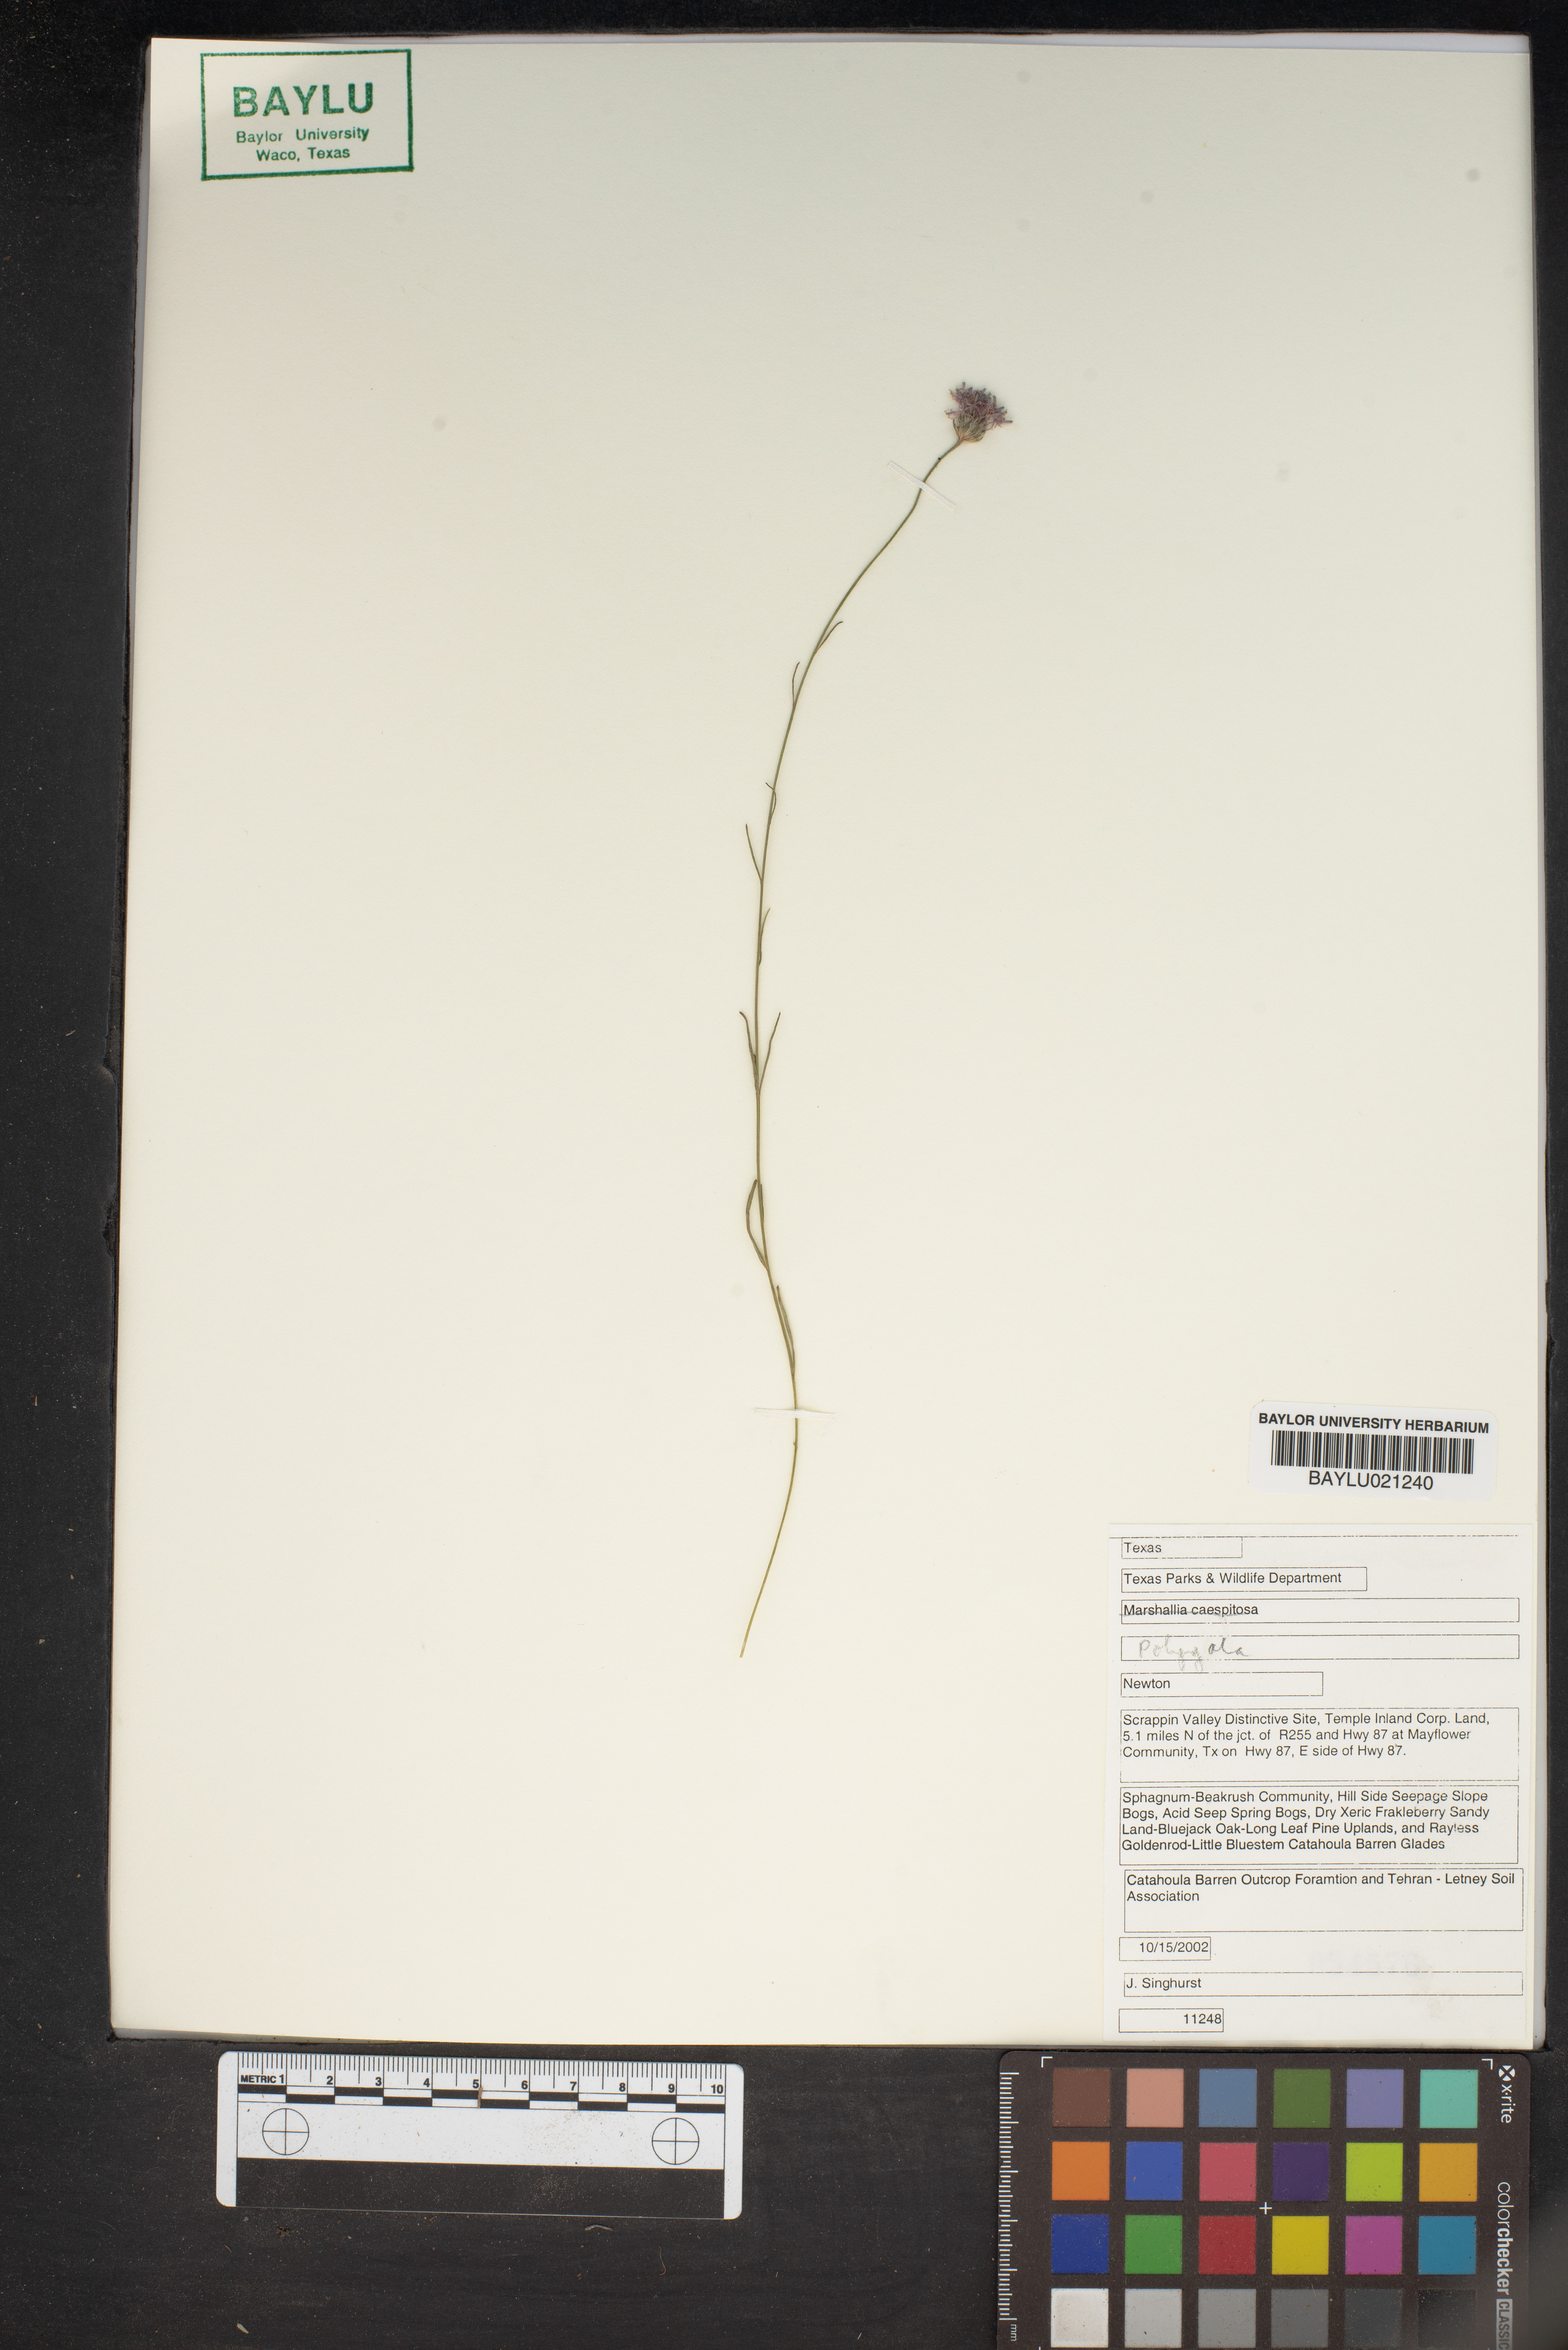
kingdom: Plantae
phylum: Tracheophyta
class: Magnoliopsida
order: Fabales
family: Polygalaceae
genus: Polygala
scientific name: Polygala
